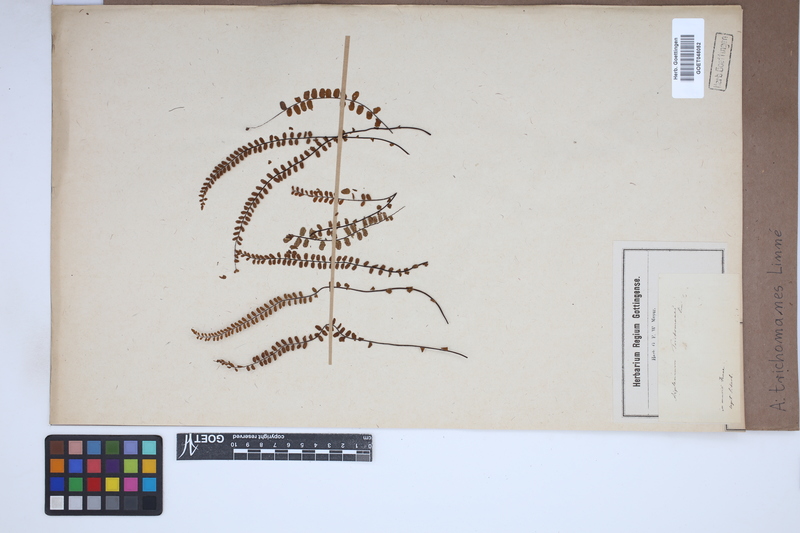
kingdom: Plantae
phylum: Tracheophyta
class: Polypodiopsida
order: Polypodiales
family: Aspleniaceae
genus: Asplenium
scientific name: Asplenium trichomanes
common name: Maidenhair spleenwort
